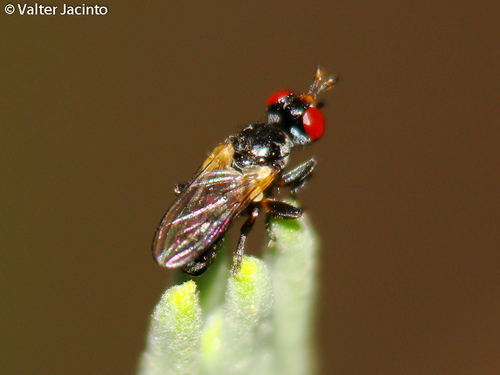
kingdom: Animalia
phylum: Arthropoda
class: Insecta
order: Diptera
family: Conopidae
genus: Thecophora
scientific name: Thecophora
